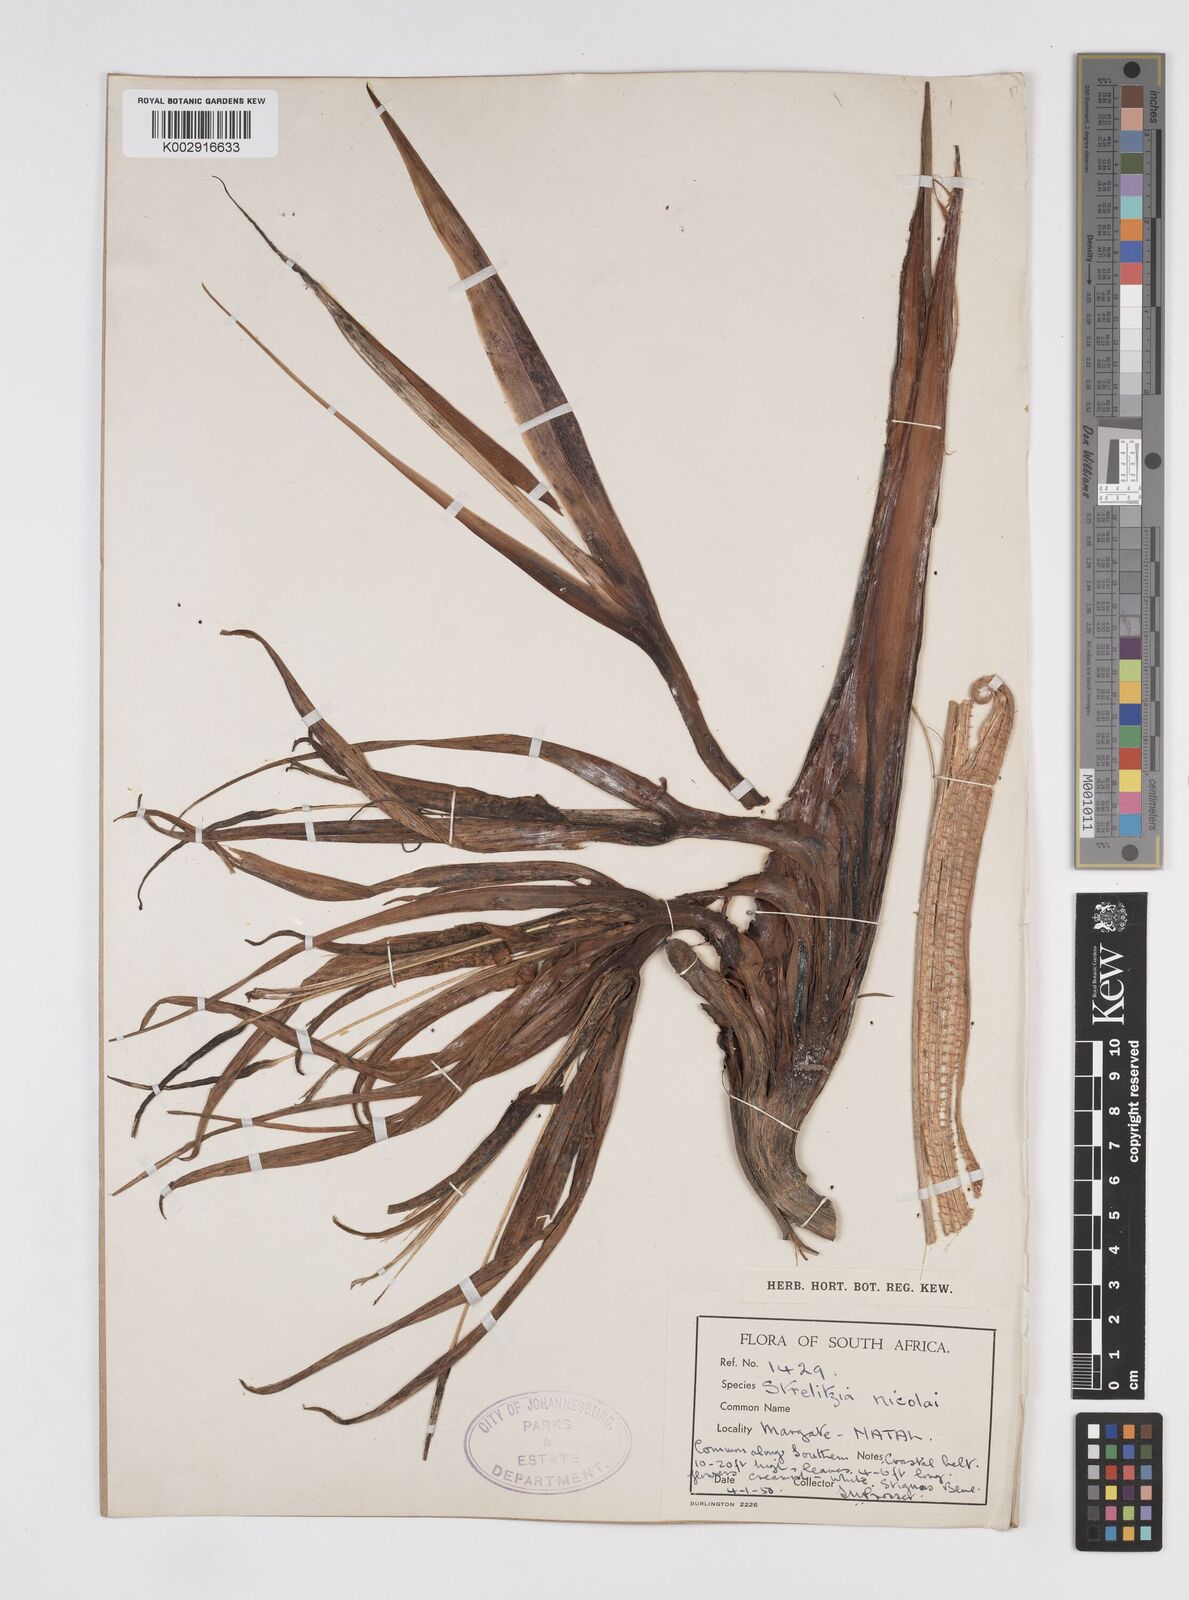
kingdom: Plantae
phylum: Tracheophyta
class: Liliopsida
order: Zingiberales
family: Strelitziaceae
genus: Strelitzia
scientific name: Strelitzia nicolai
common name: Bird-of-paradise tree
